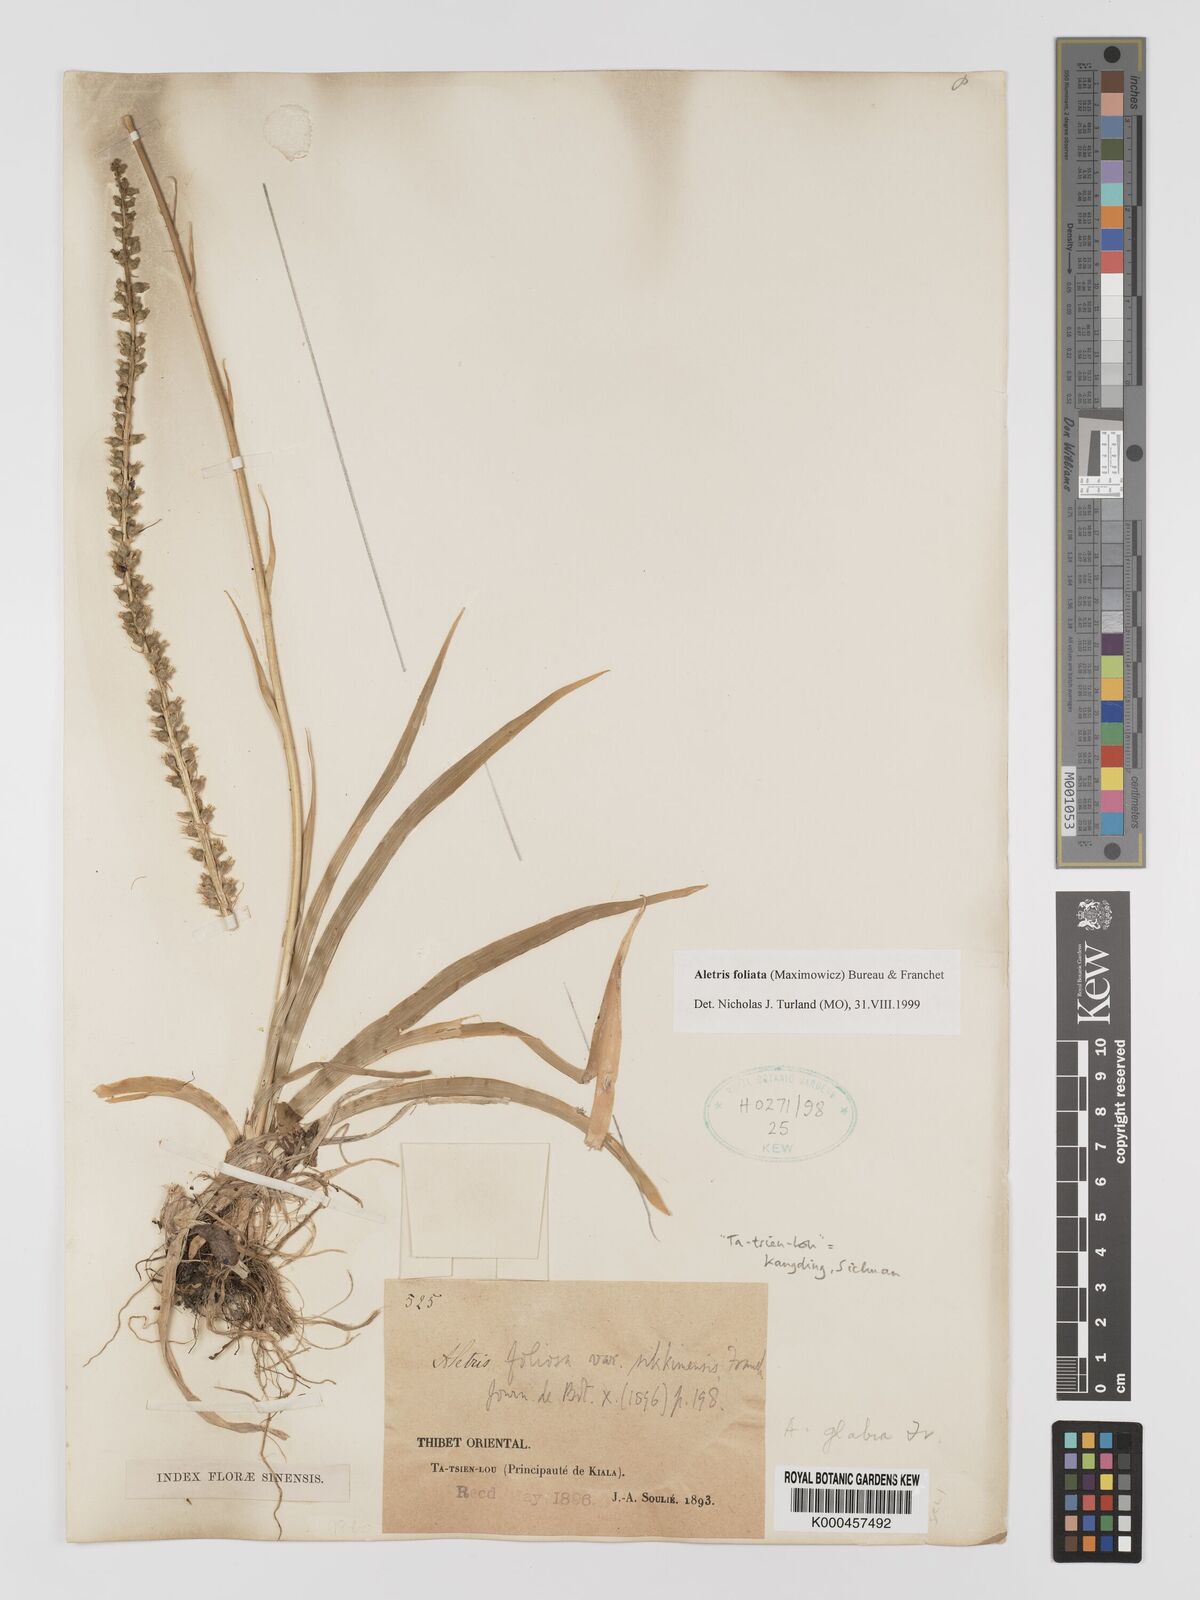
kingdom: Plantae
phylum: Tracheophyta
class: Liliopsida
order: Dioscoreales
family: Nartheciaceae
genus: Aletris
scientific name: Aletris
